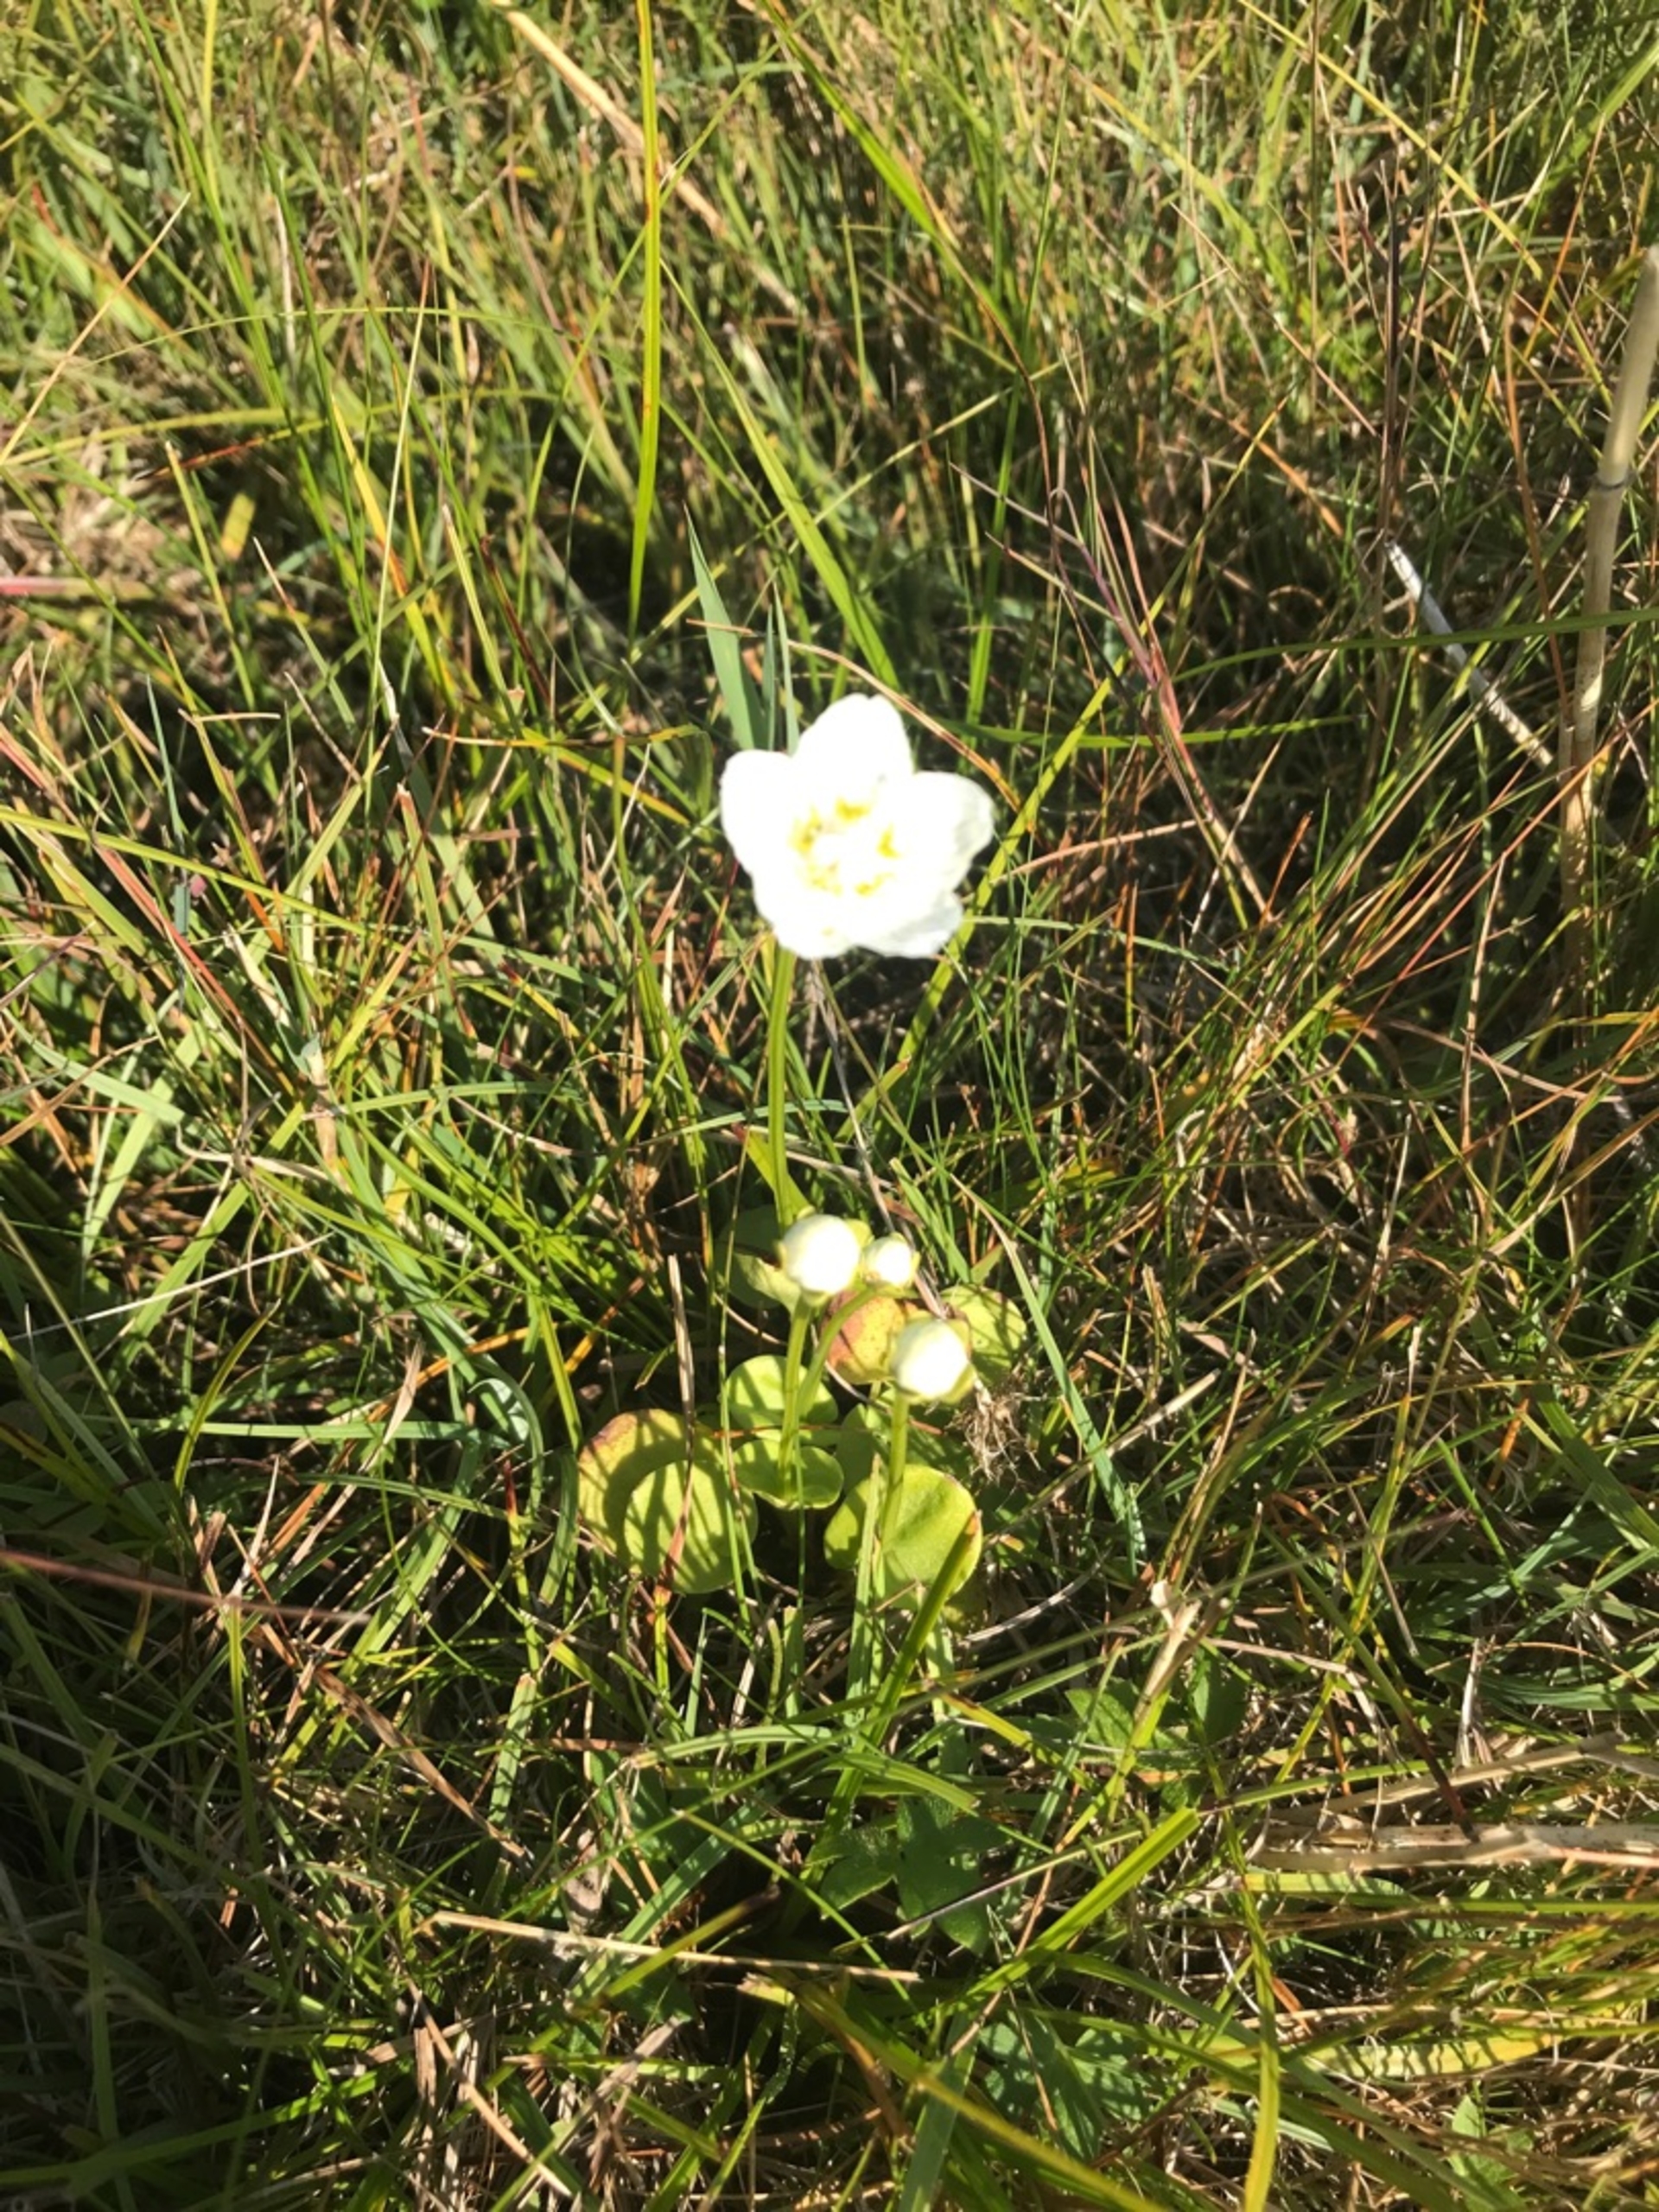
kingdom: Plantae
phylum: Tracheophyta
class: Magnoliopsida
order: Celastrales
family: Parnassiaceae
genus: Parnassia
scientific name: Parnassia palustris
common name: Leverurt
